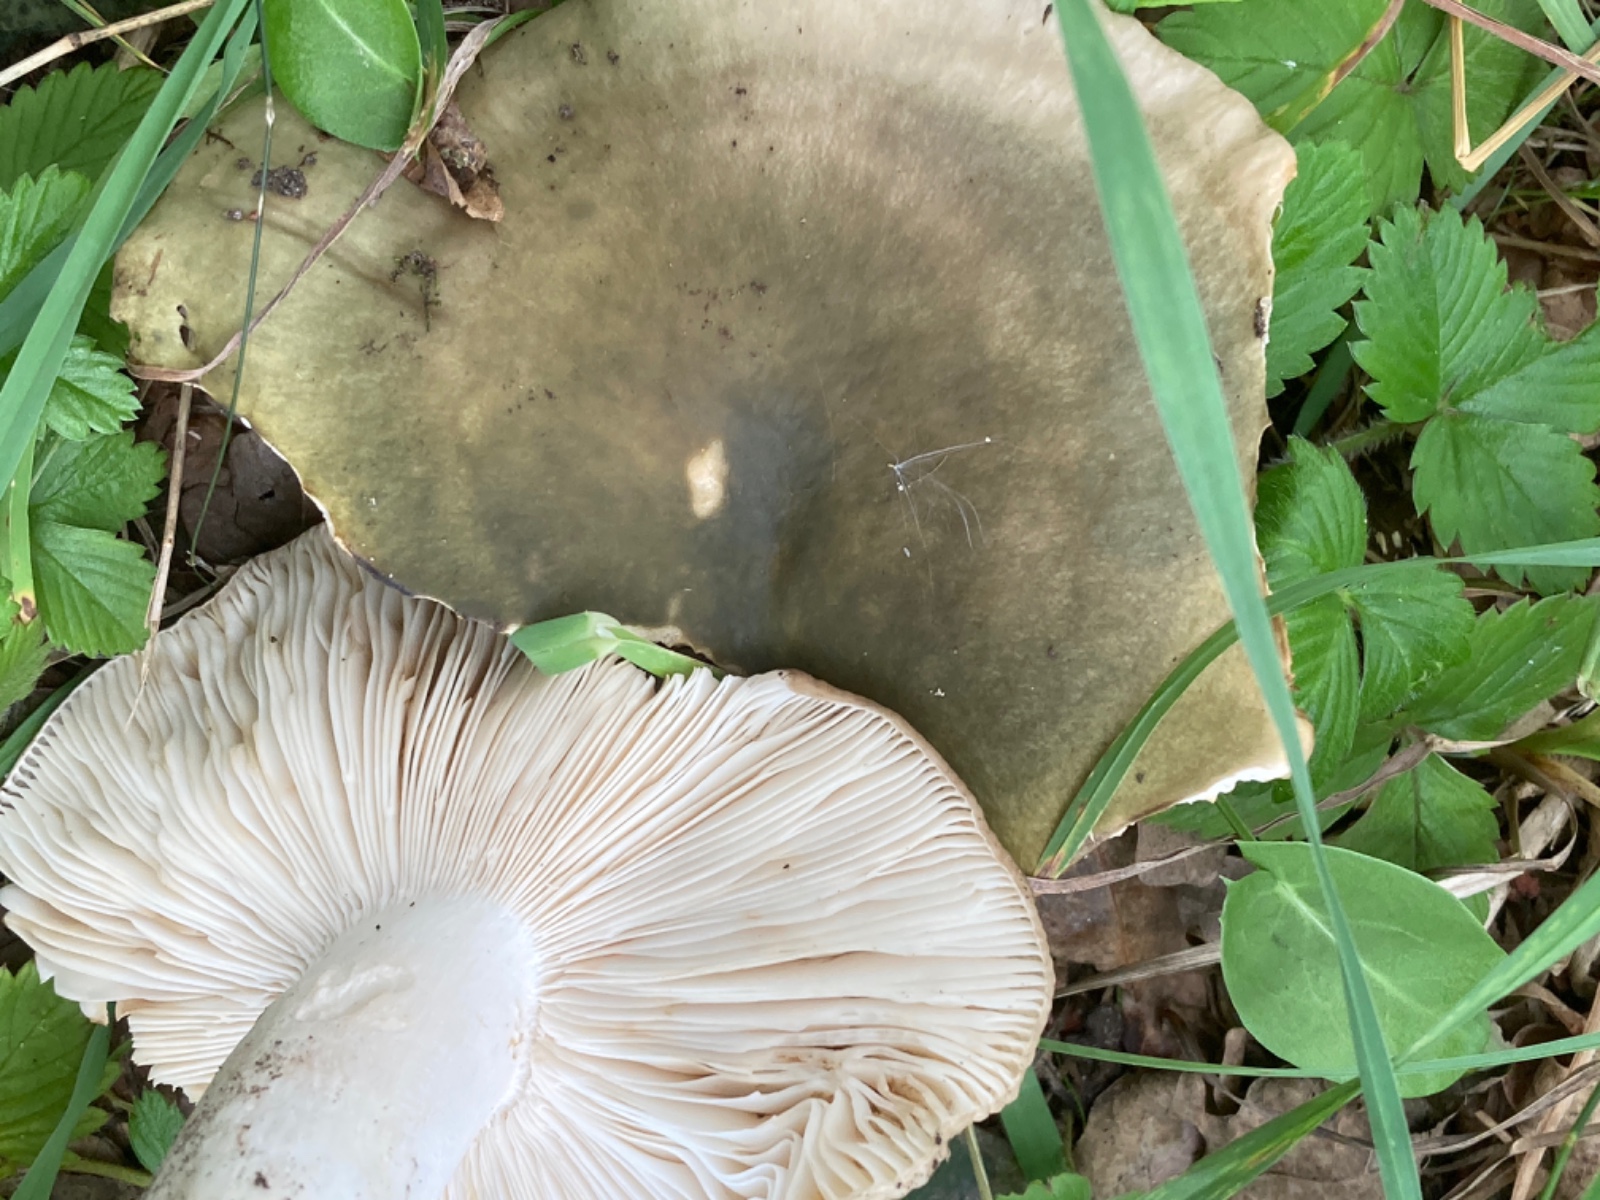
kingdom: Fungi
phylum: Basidiomycota
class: Agaricomycetes
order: Russulales
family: Russulaceae
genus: Russula
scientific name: Russula heterophylla
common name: gaffelbladet skørhat
